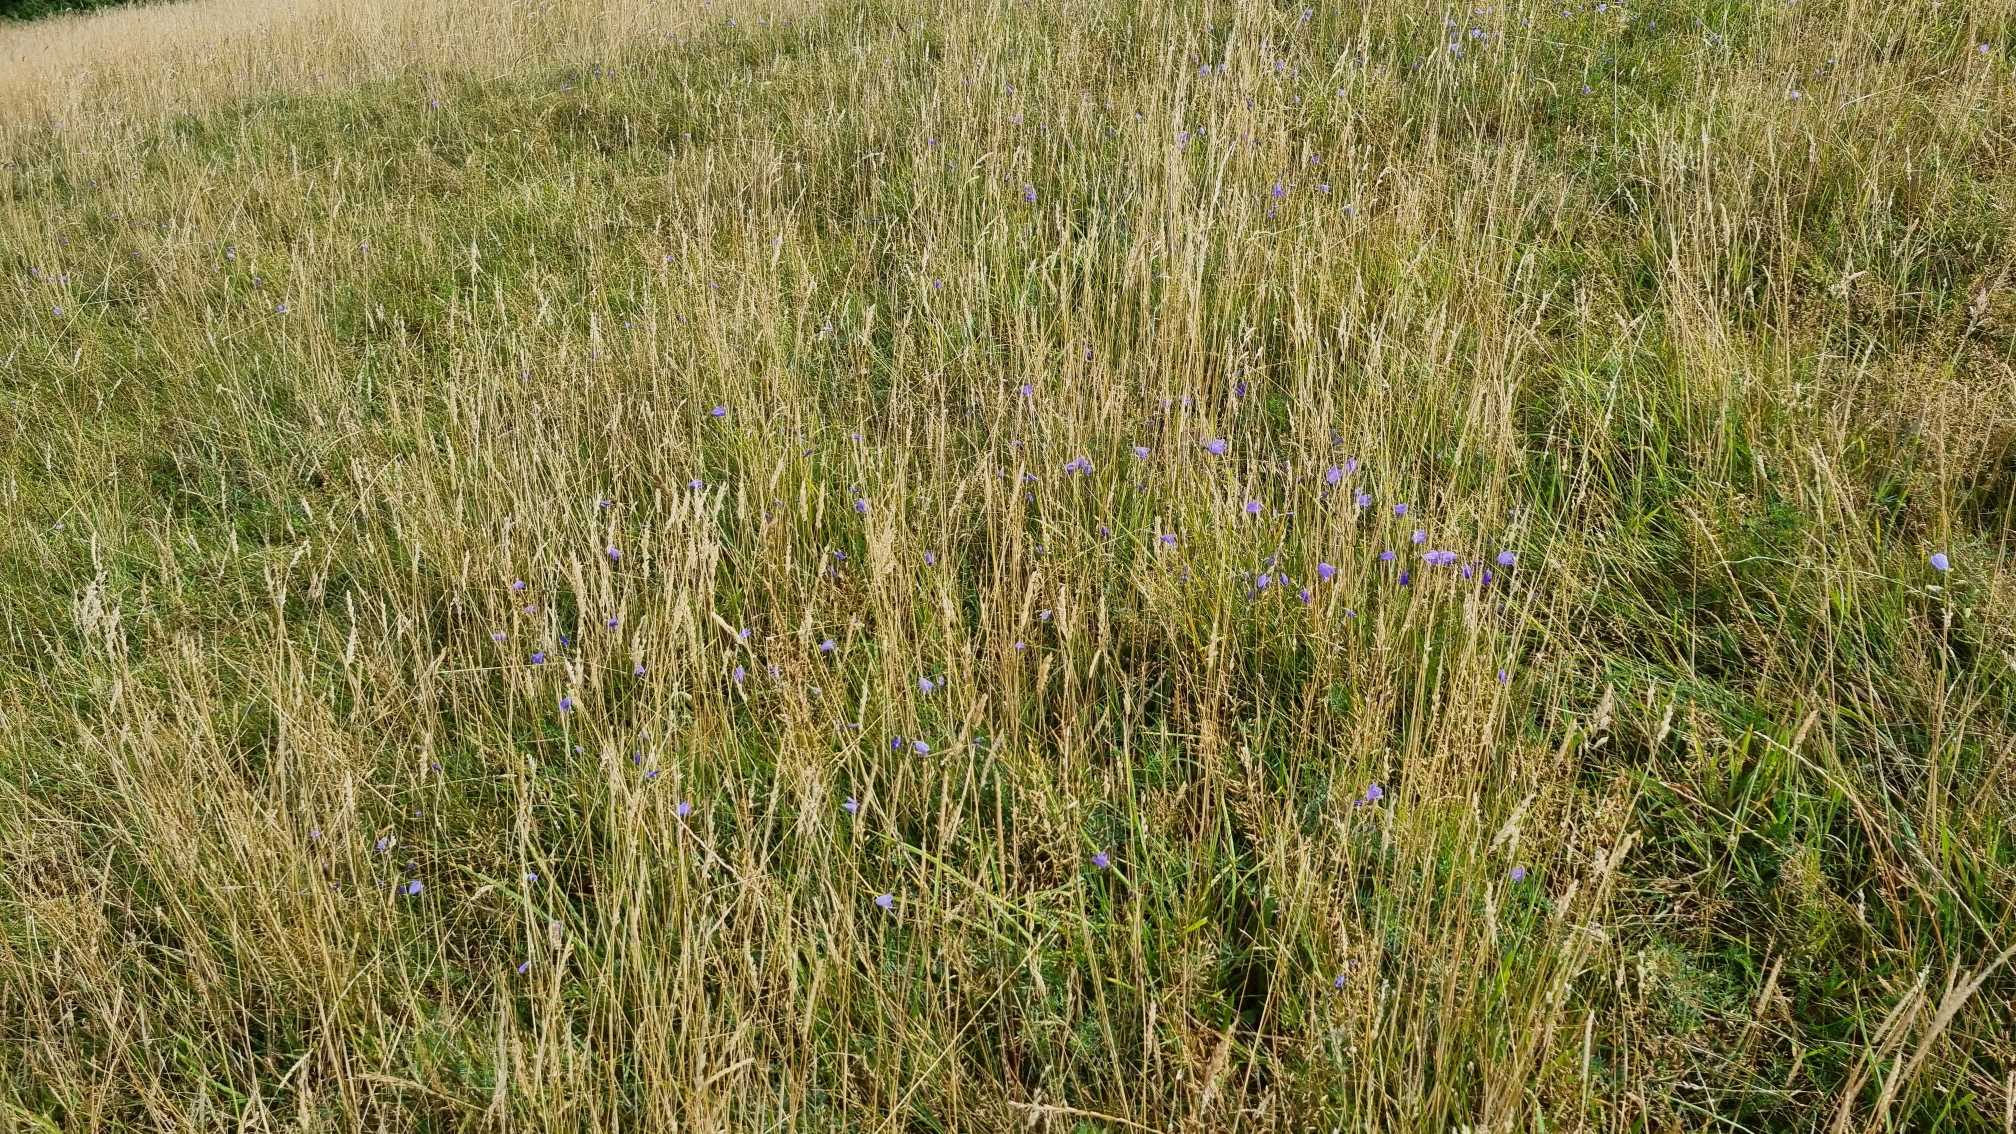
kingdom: Plantae
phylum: Tracheophyta
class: Magnoliopsida
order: Asterales
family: Campanulaceae
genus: Campanula
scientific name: Campanula rotundifolia
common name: Liden klokke
